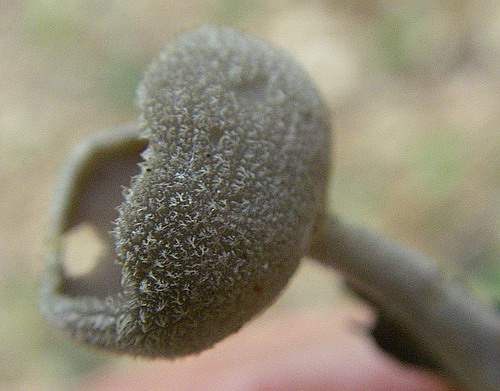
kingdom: Fungi
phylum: Ascomycota
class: Pezizomycetes
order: Pezizales
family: Helvellaceae
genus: Helvella
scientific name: Helvella macropus
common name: højstokket foldhat
